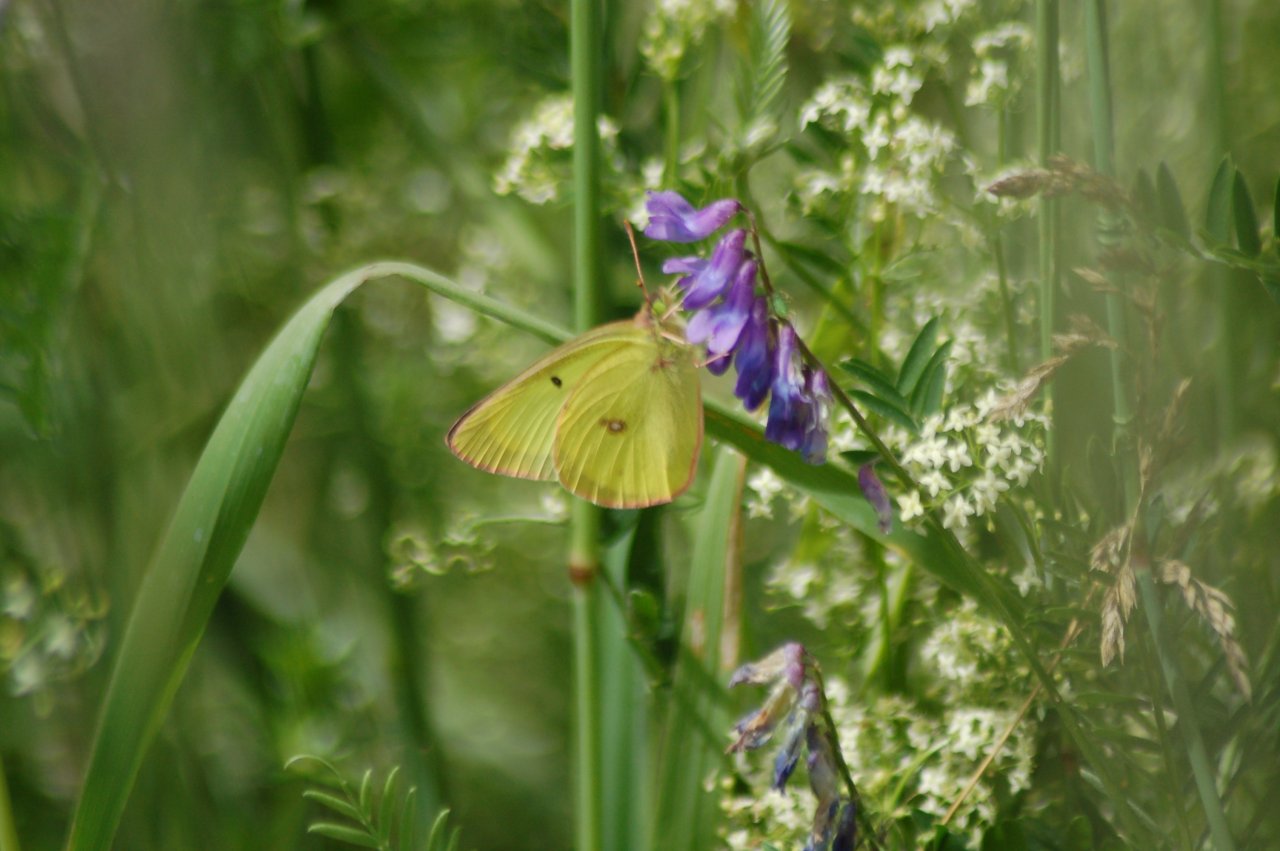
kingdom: Animalia
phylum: Arthropoda
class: Insecta
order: Lepidoptera
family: Pieridae
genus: Colias
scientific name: Colias interior
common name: Pink-edged Sulphur
